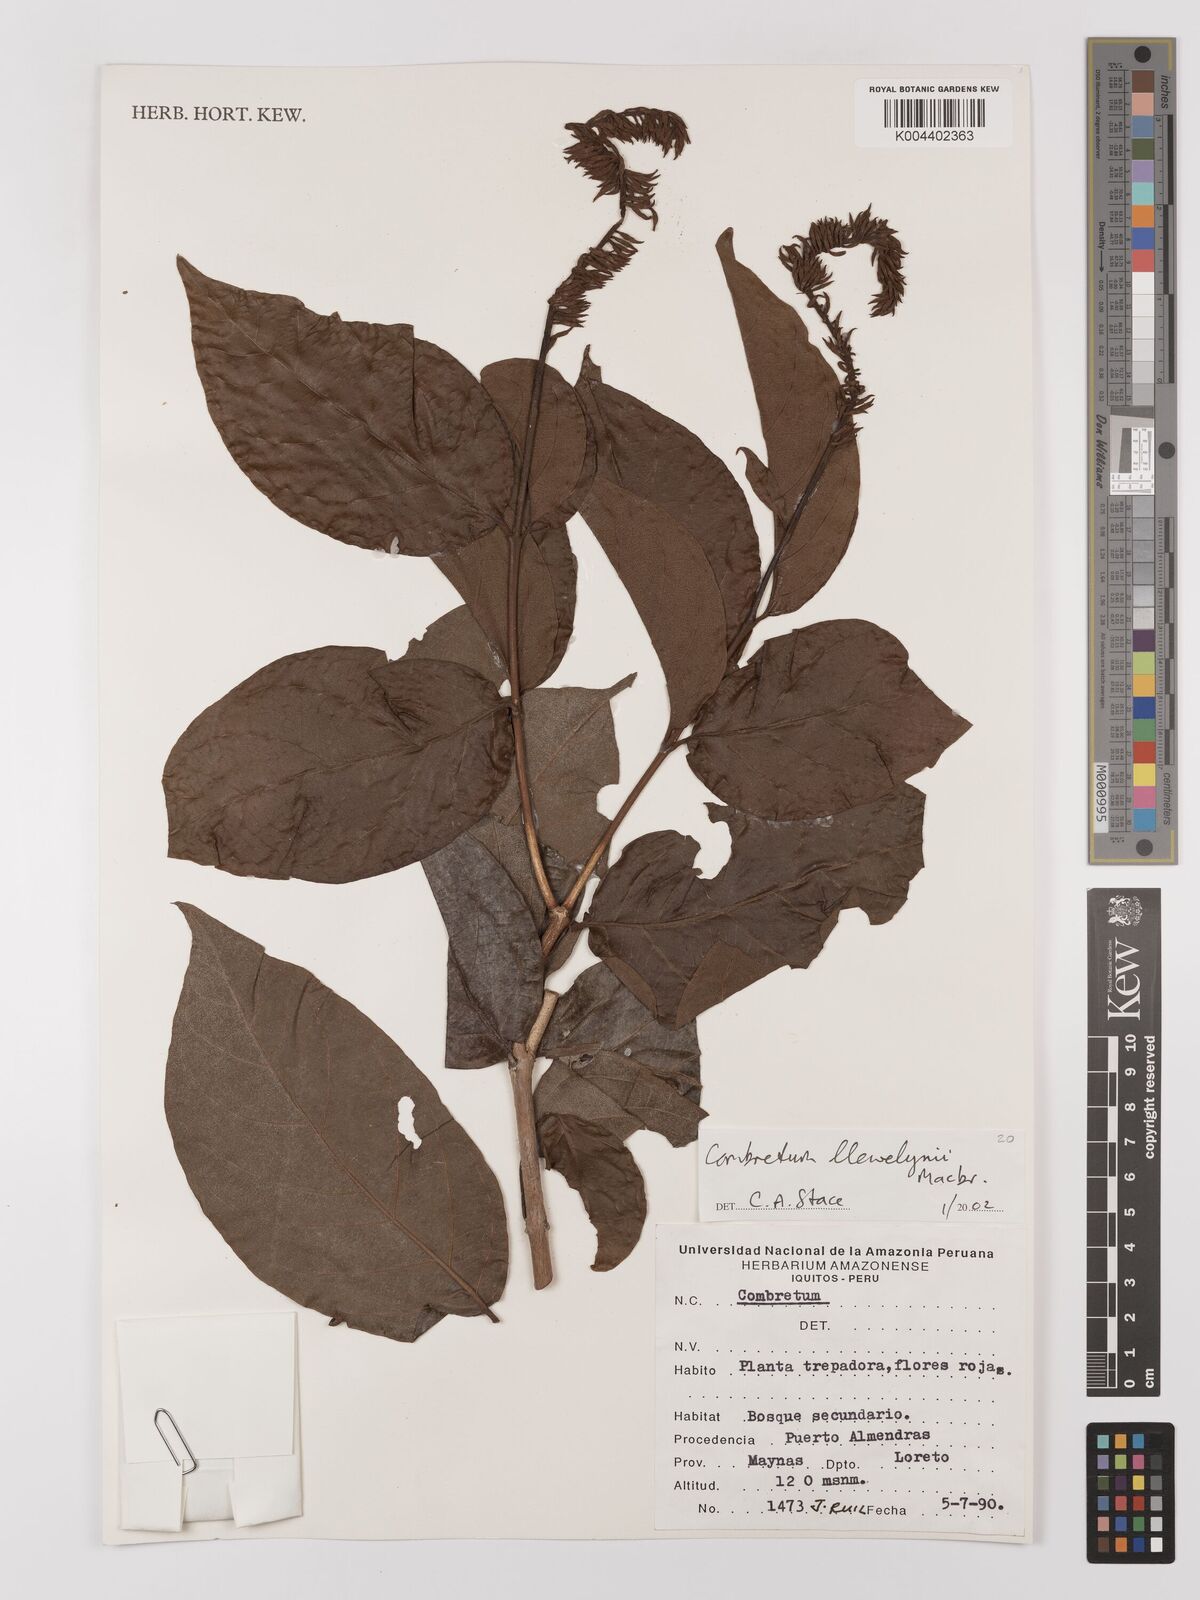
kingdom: Plantae
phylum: Tracheophyta
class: Magnoliopsida
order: Myrtales
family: Combretaceae
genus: Combretum
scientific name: Combretum llewelynii
